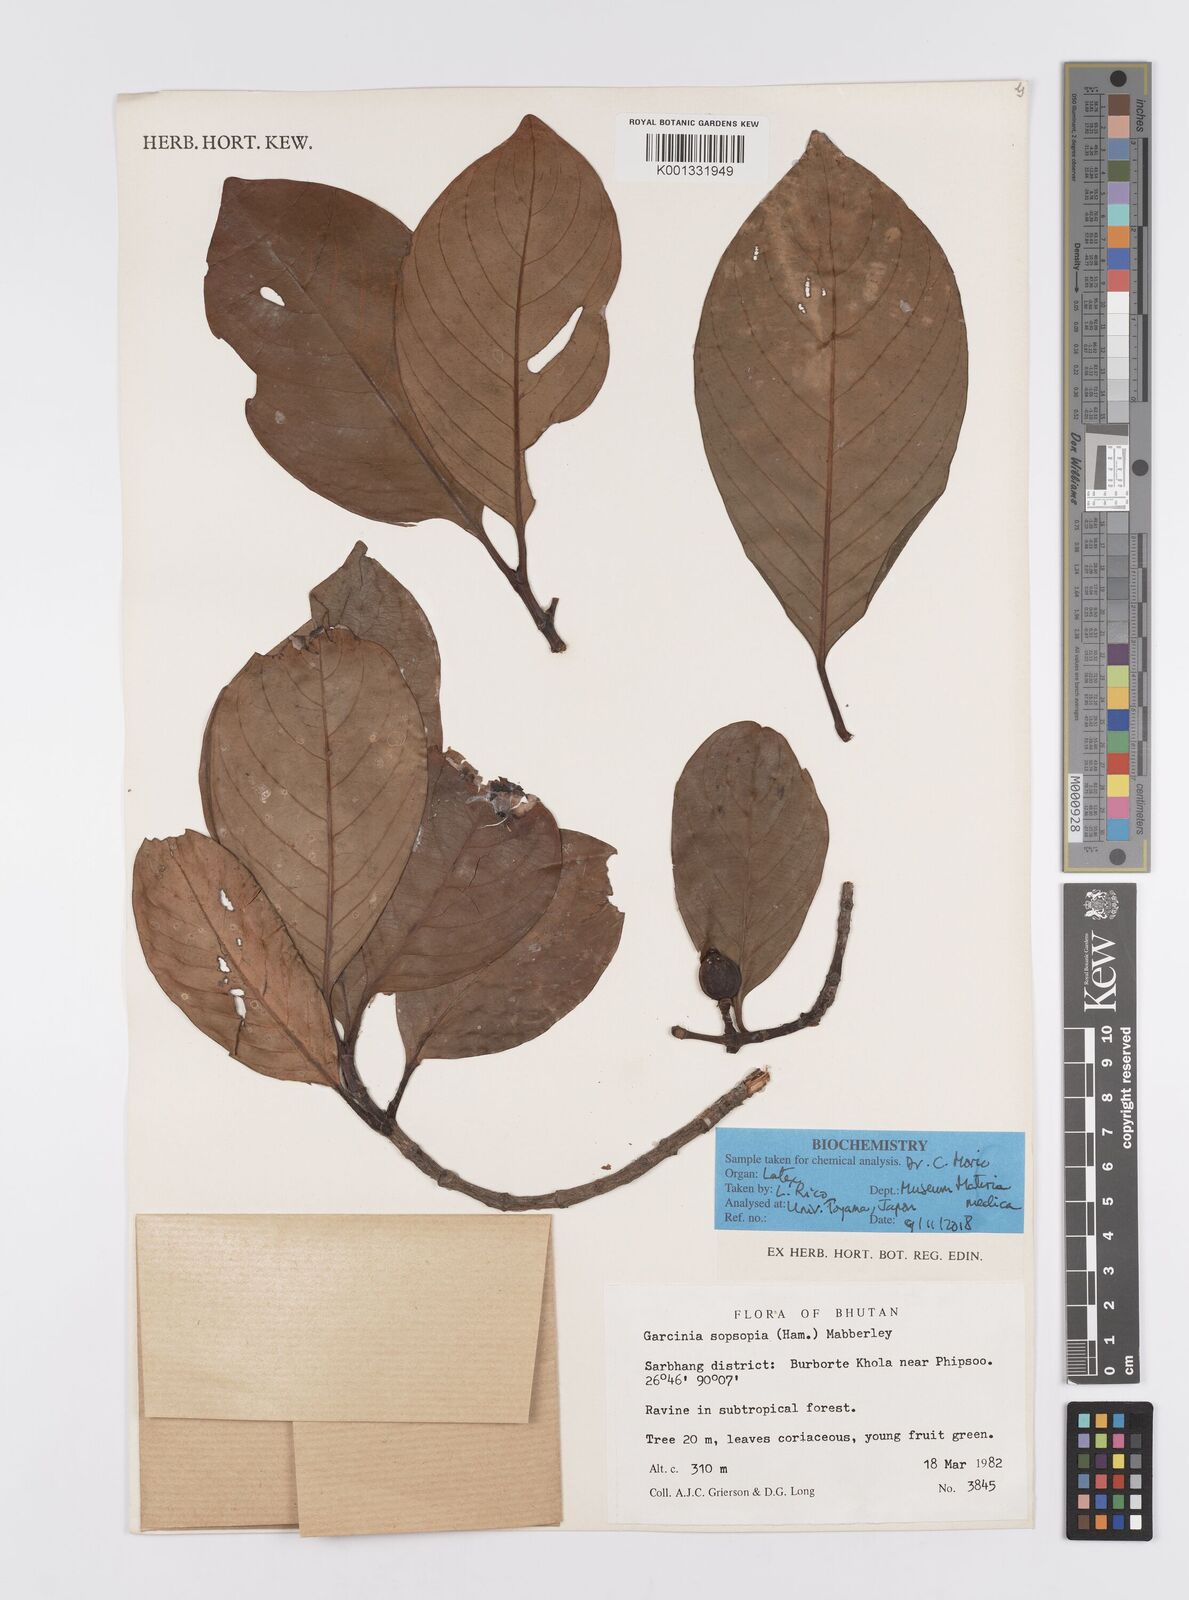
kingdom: Plantae
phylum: Tracheophyta
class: Magnoliopsida
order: Malpighiales
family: Clusiaceae
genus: Garcinia
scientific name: Garcinia sopsopia
